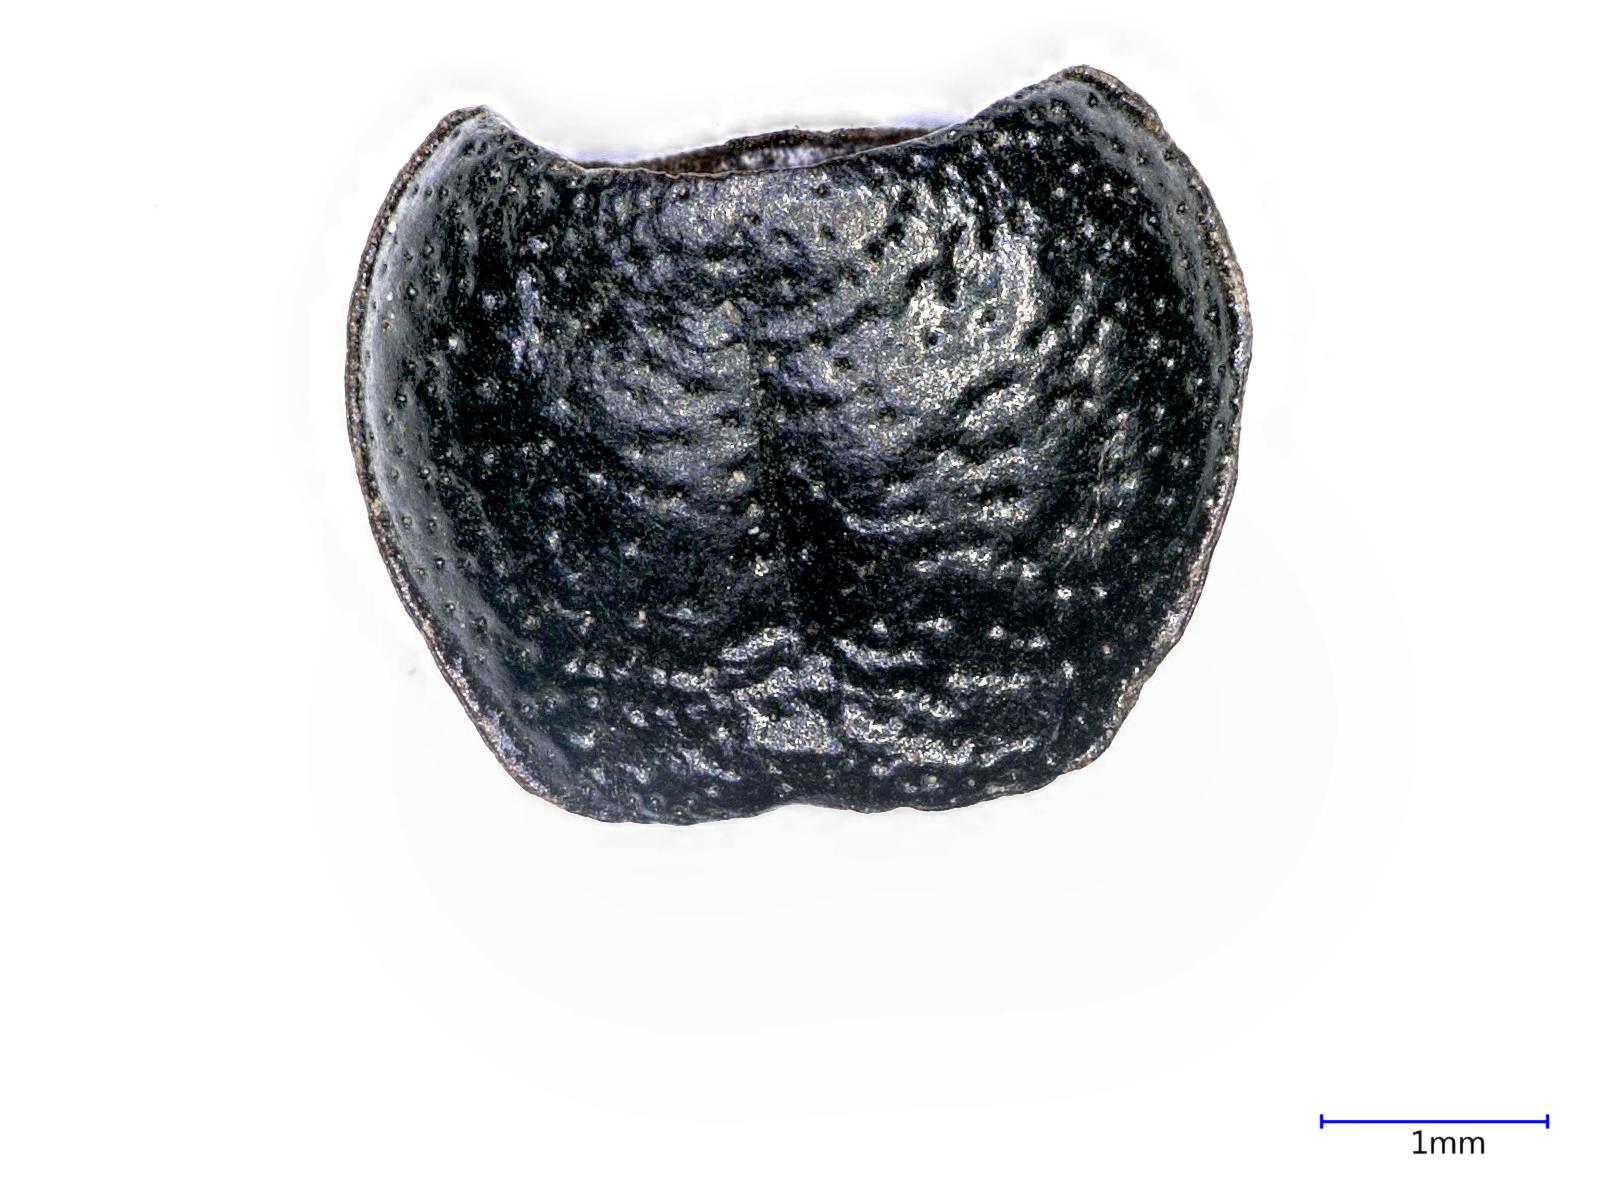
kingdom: Animalia
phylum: Arthropoda
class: Insecta
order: Coleoptera
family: Carabidae
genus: Dicheirus
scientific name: Dicheirus dilatatus
